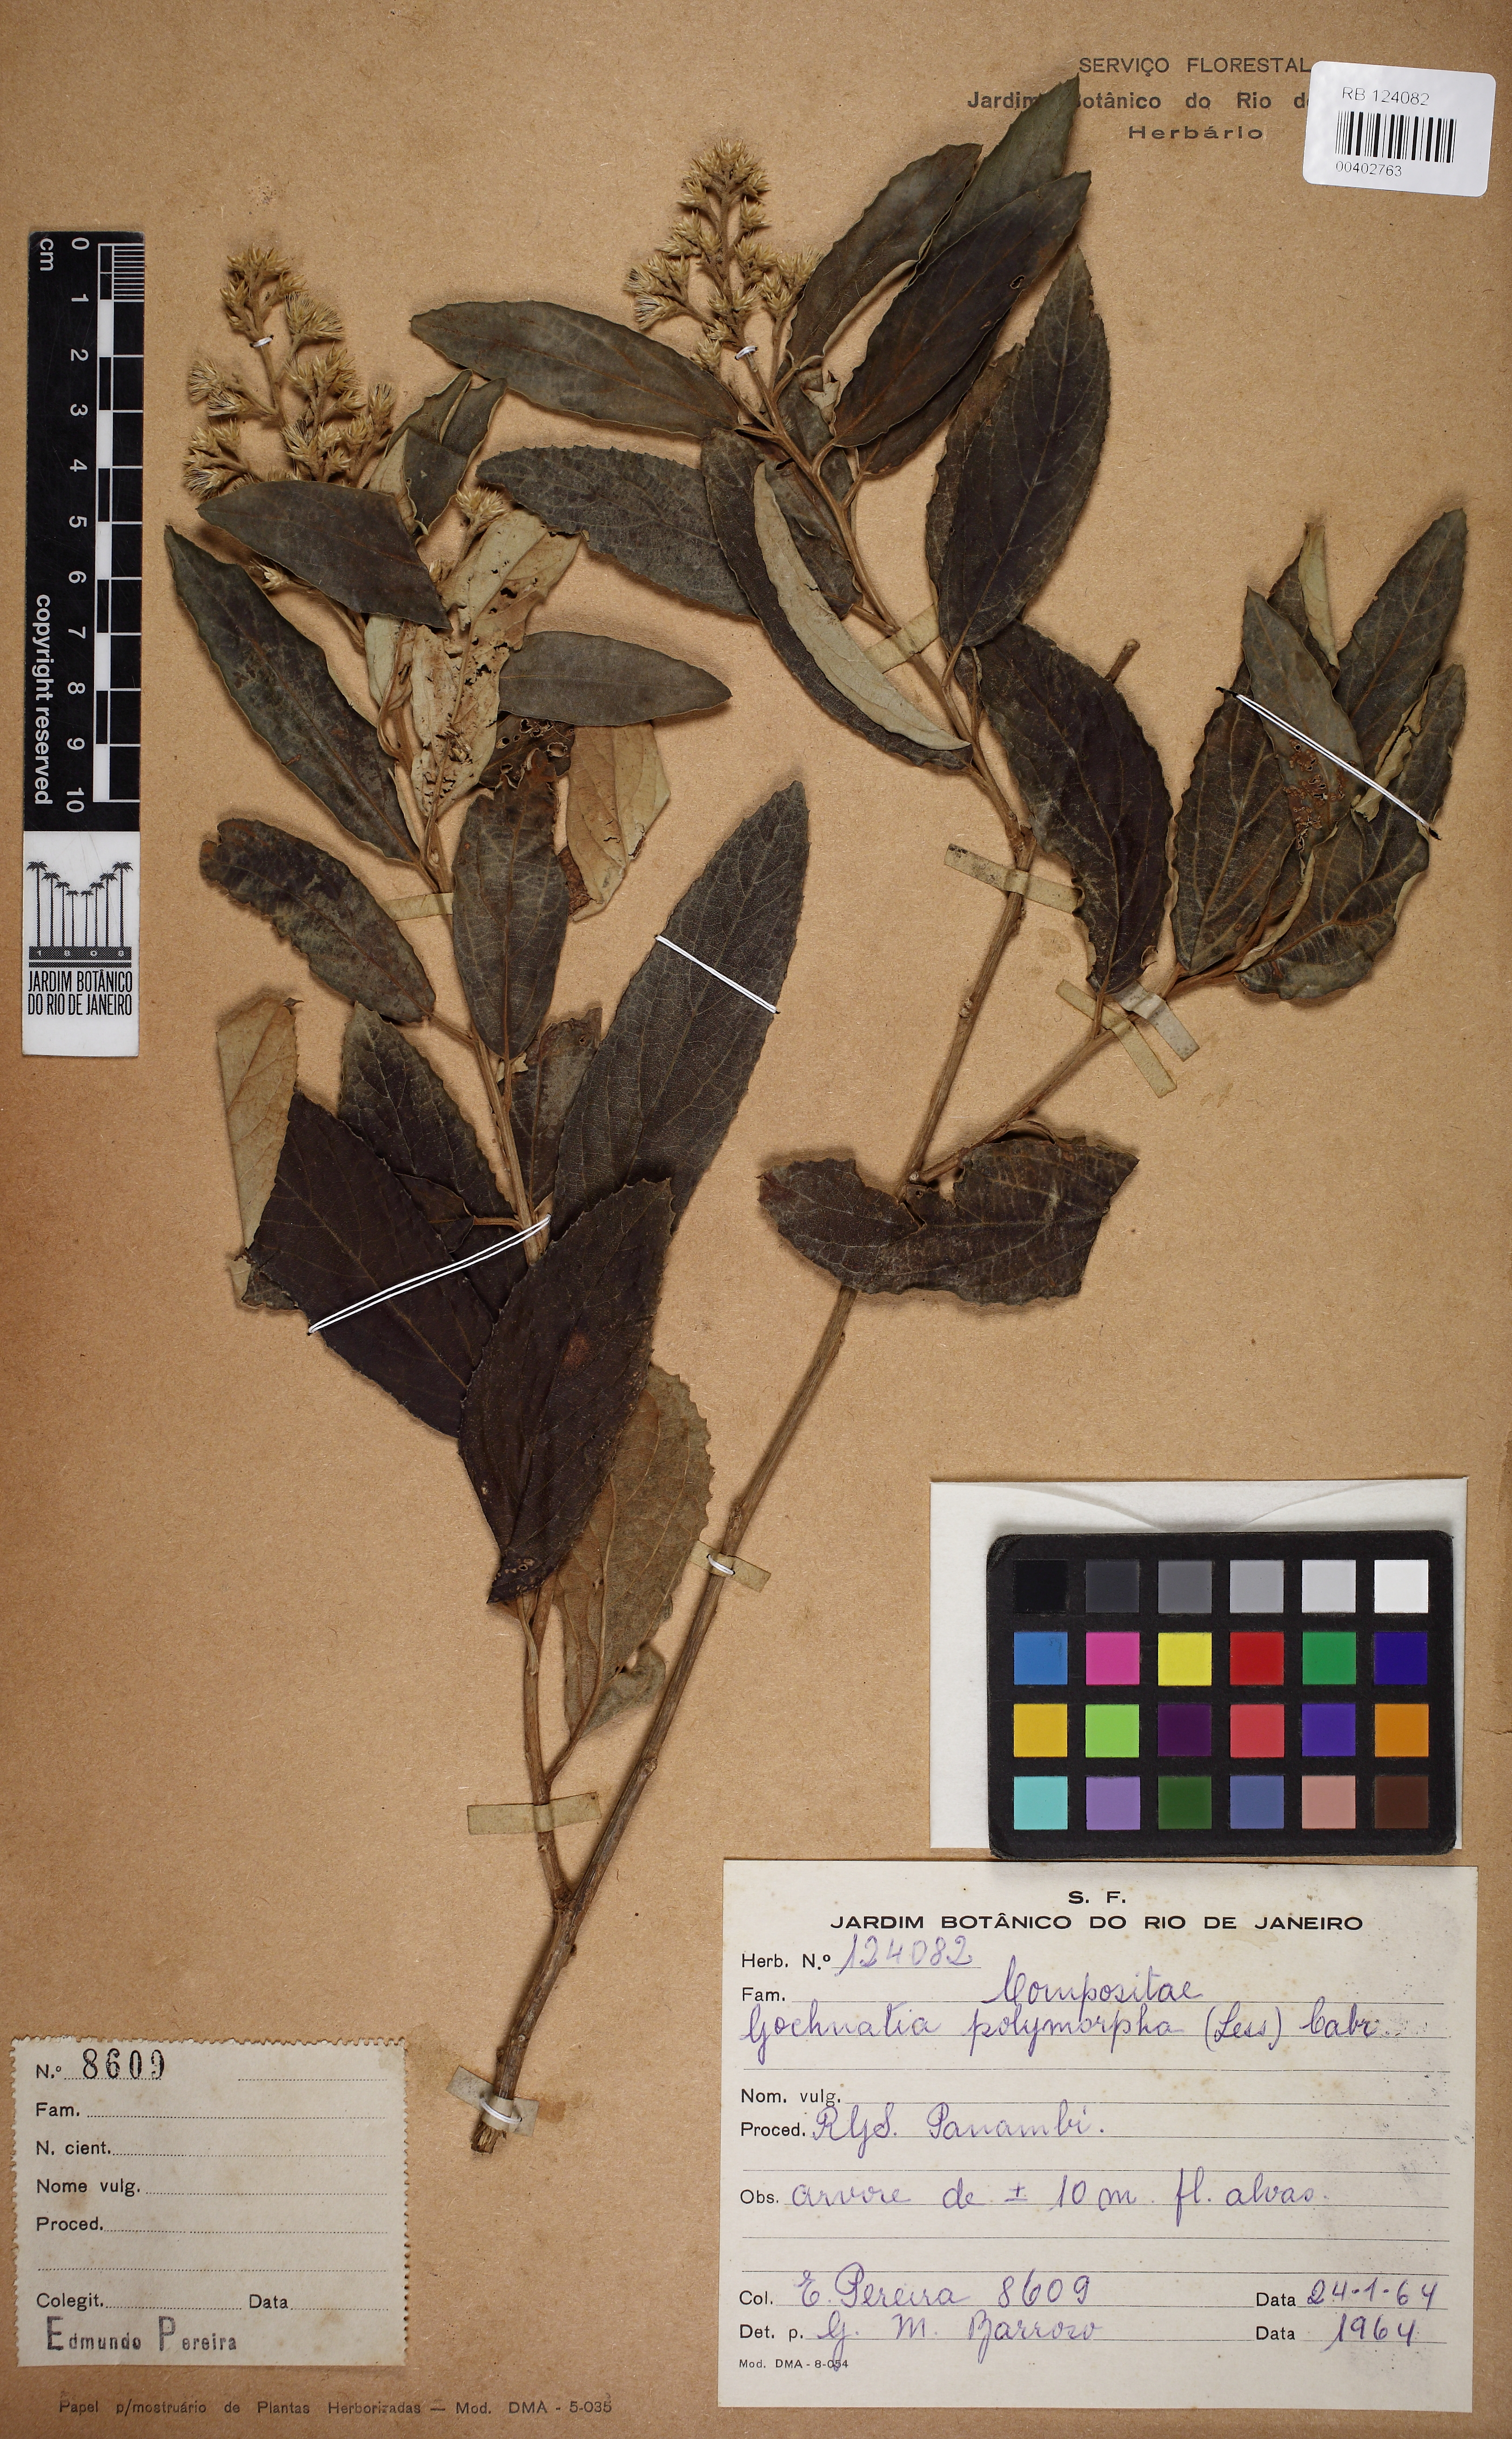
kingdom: Plantae
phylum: Tracheophyta
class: Magnoliopsida
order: Asterales
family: Asteraceae
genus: Moquiniastrum
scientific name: Moquiniastrum polymorphum
